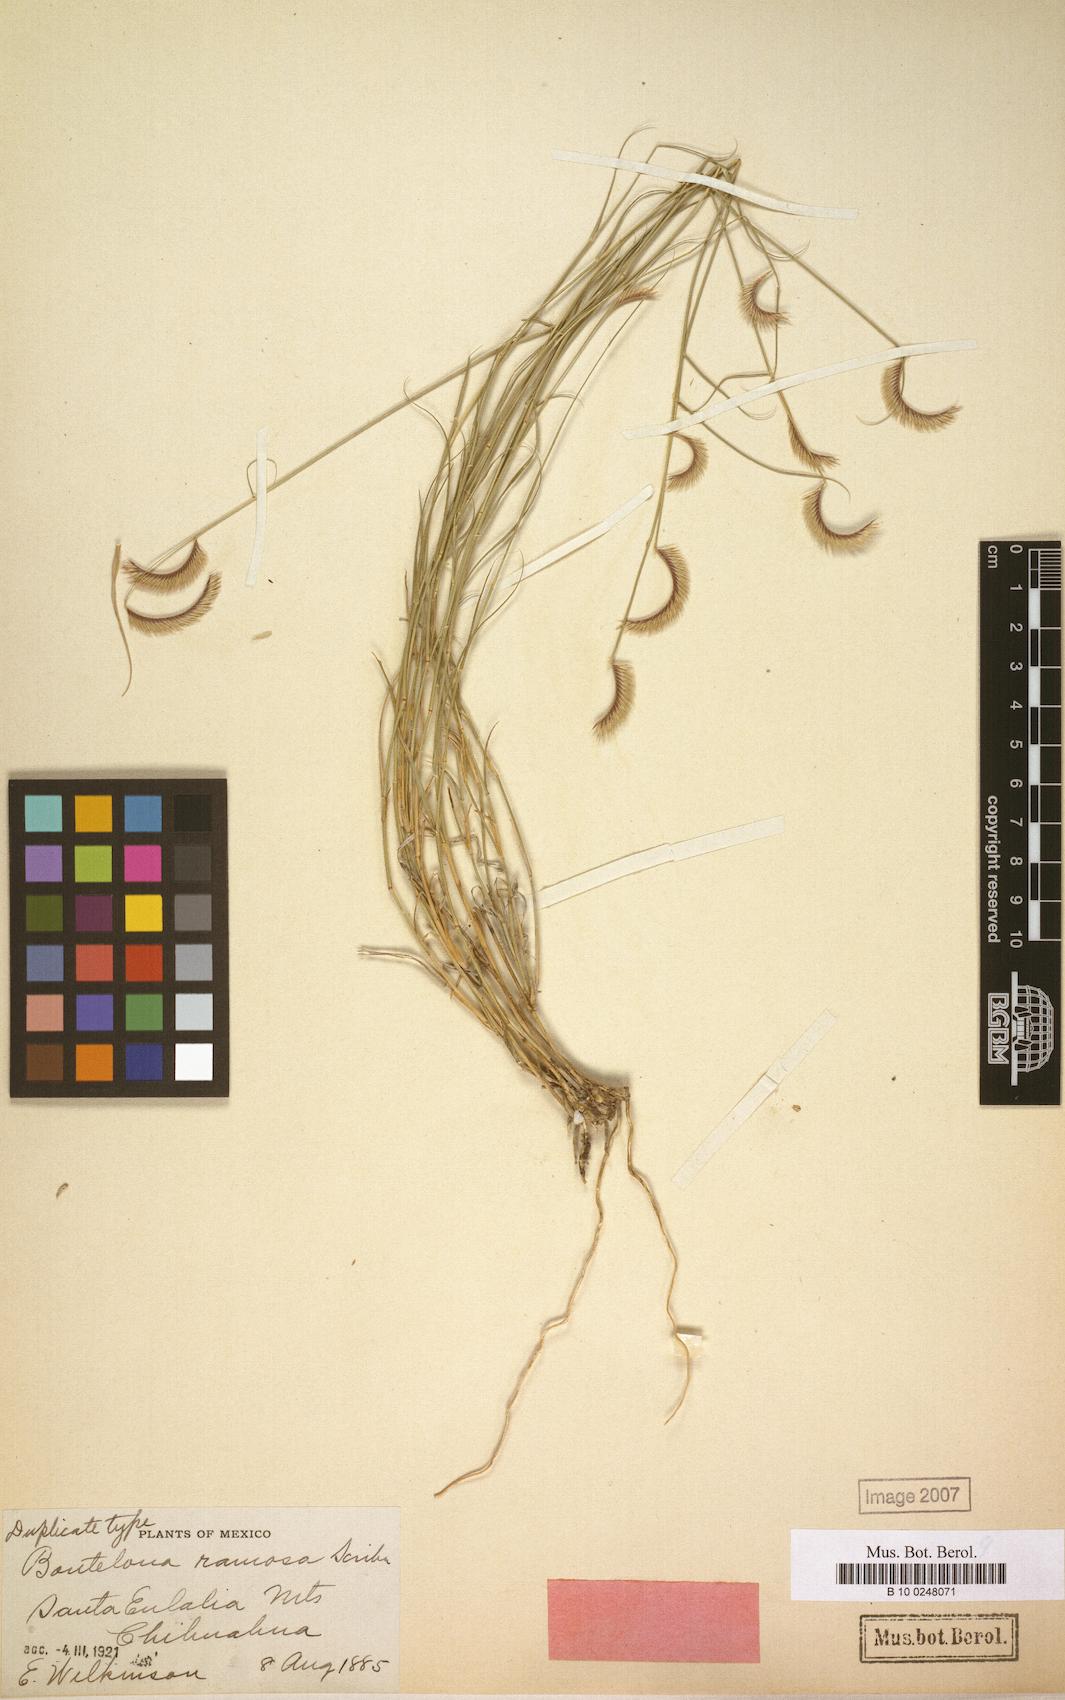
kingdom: Plantae
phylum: Tracheophyta
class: Liliopsida
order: Poales
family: Poaceae
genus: Bouteloua
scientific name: Bouteloua breviseta
